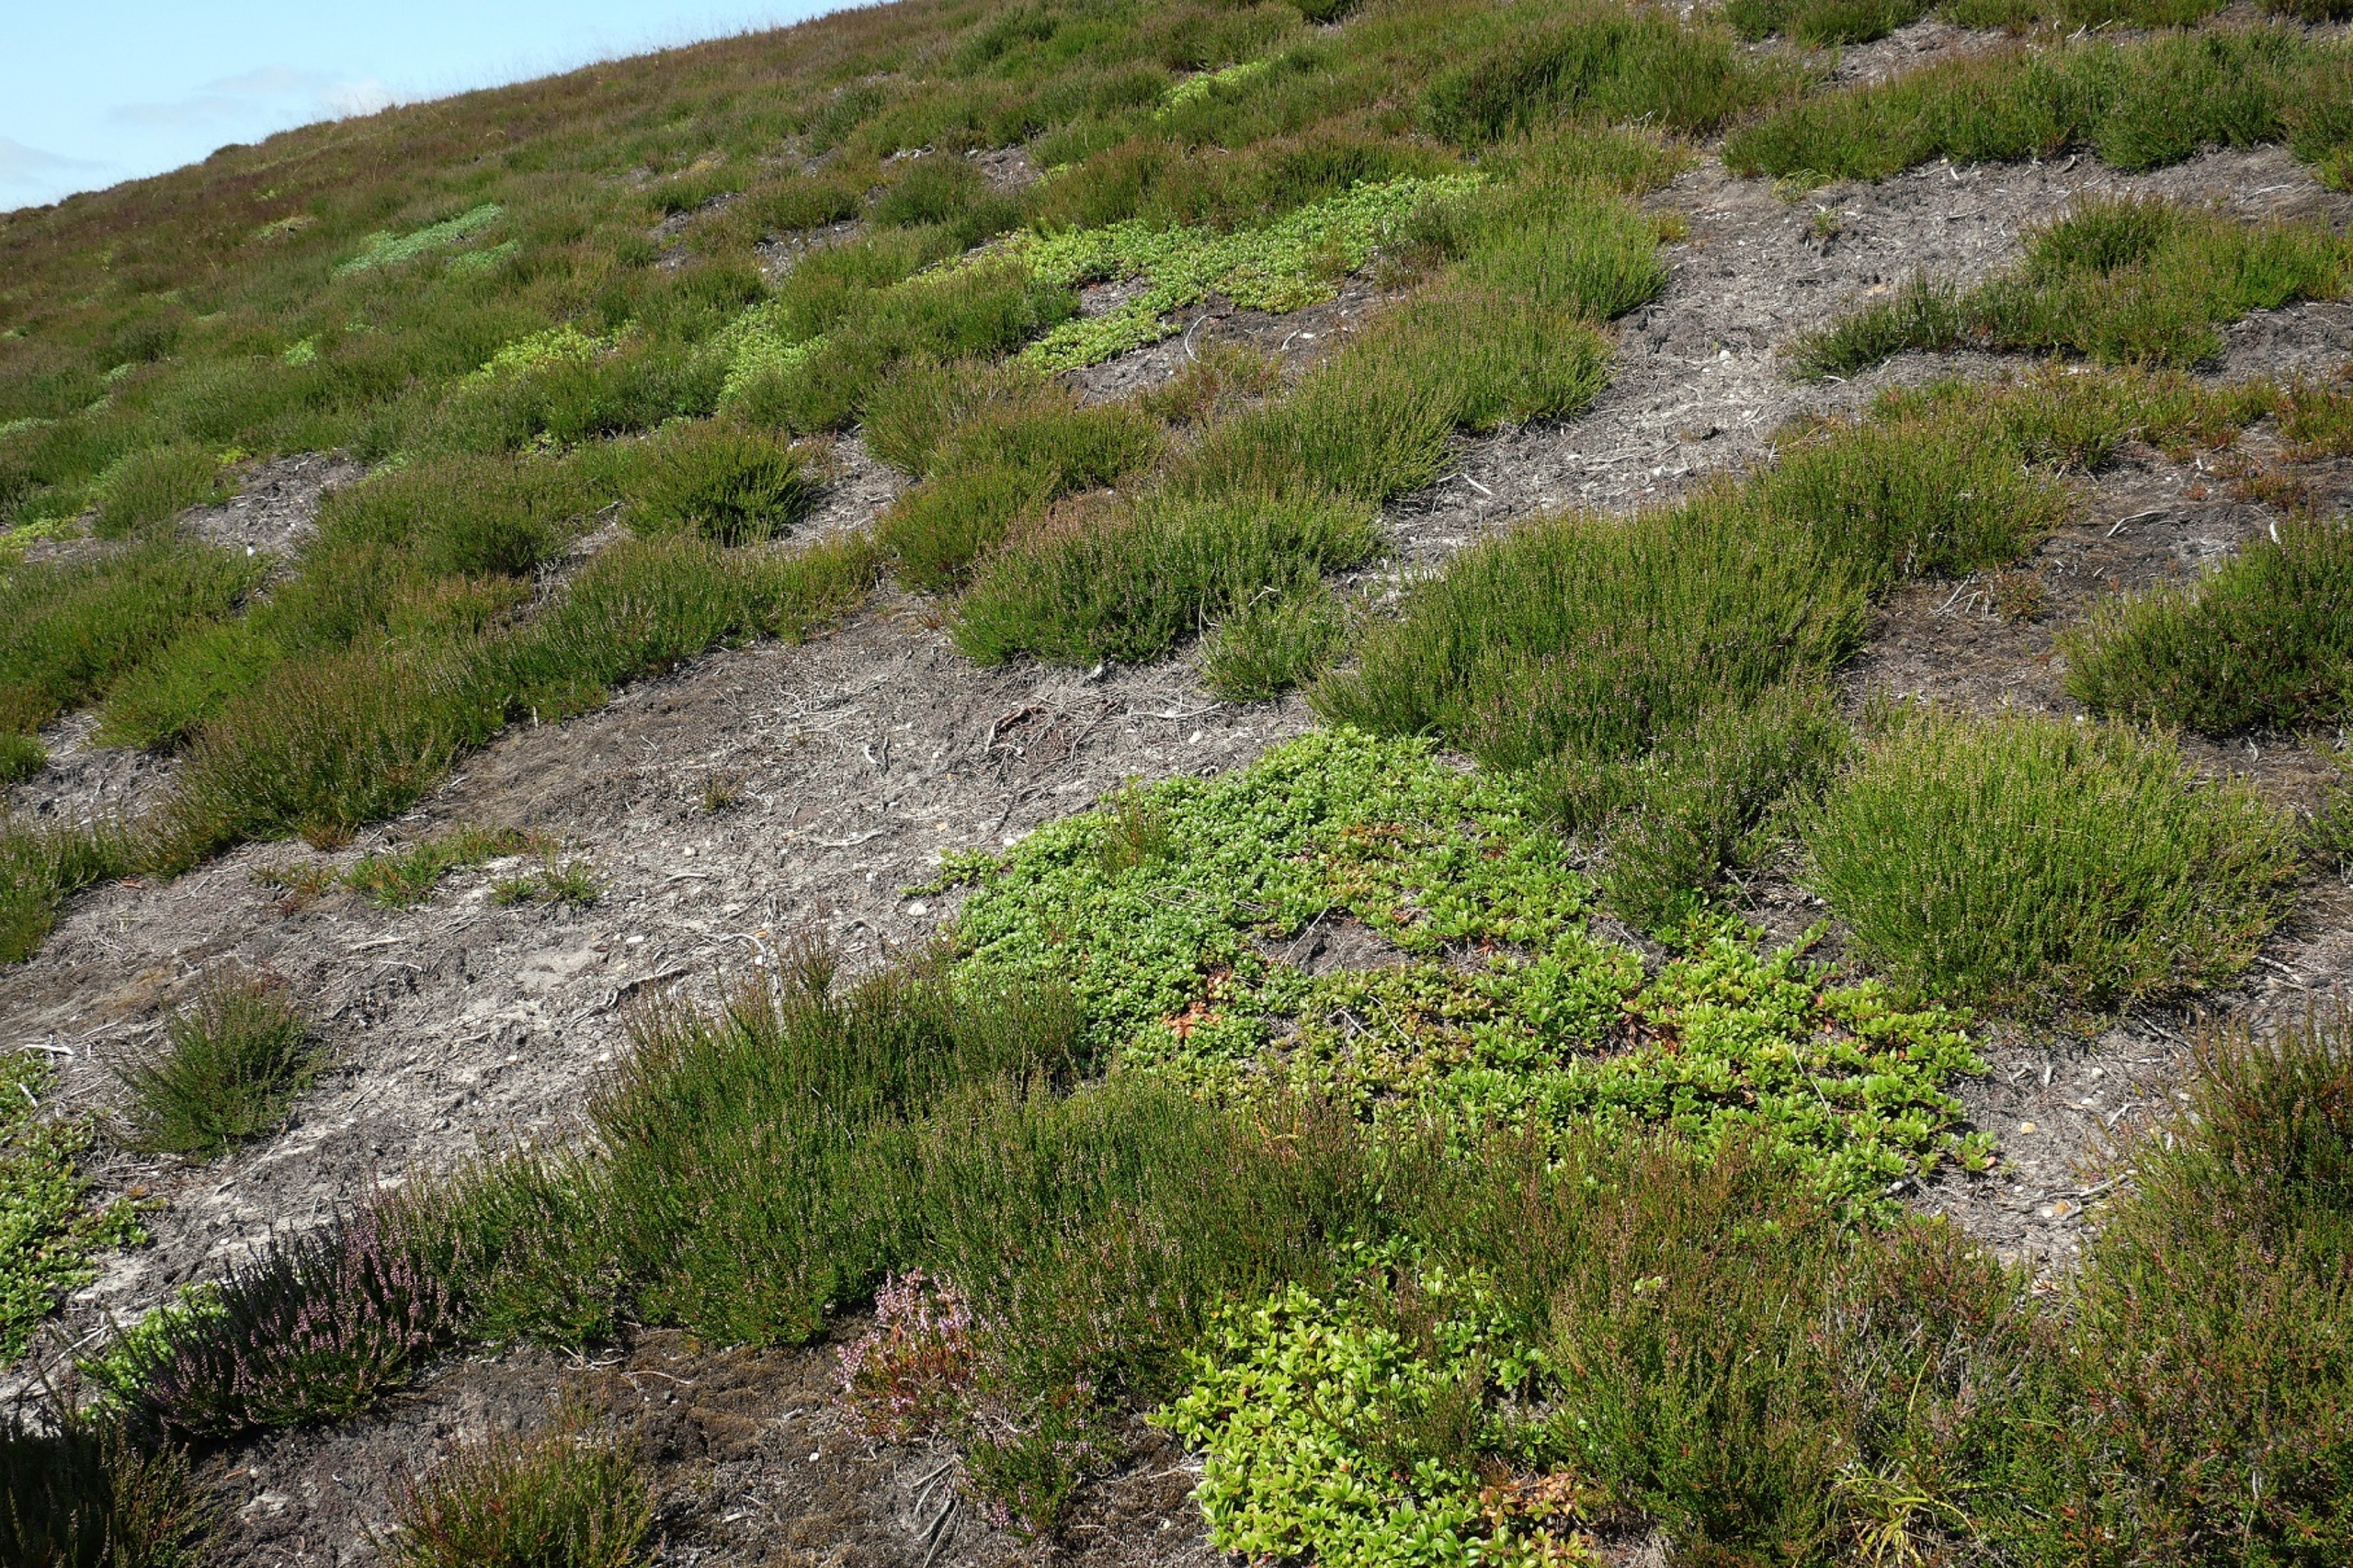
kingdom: Plantae
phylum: Tracheophyta
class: Magnoliopsida
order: Ericales
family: Ericaceae
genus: Arctostaphylos
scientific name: Arctostaphylos uva-ursi
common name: Hede-melbærris
